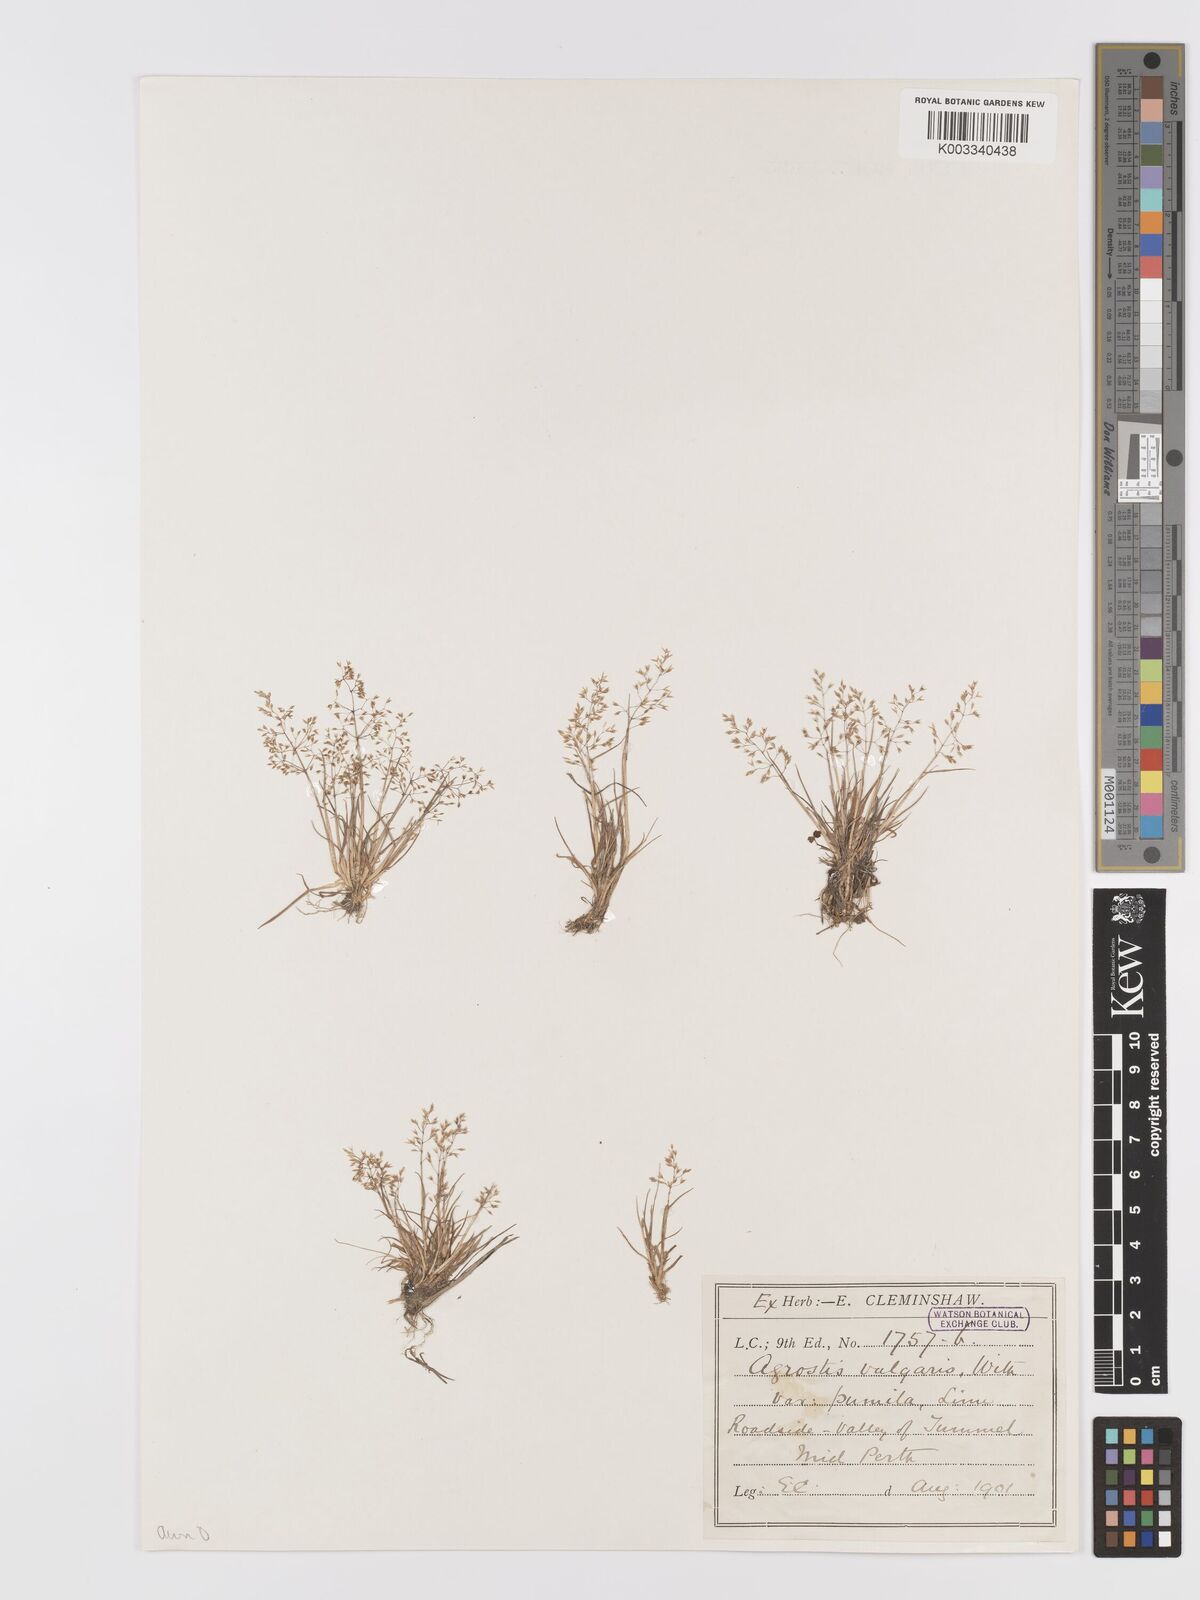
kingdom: Plantae
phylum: Tracheophyta
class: Liliopsida
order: Poales
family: Poaceae
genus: Agrostis
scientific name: Agrostis capillaris
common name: Colonial bentgrass
